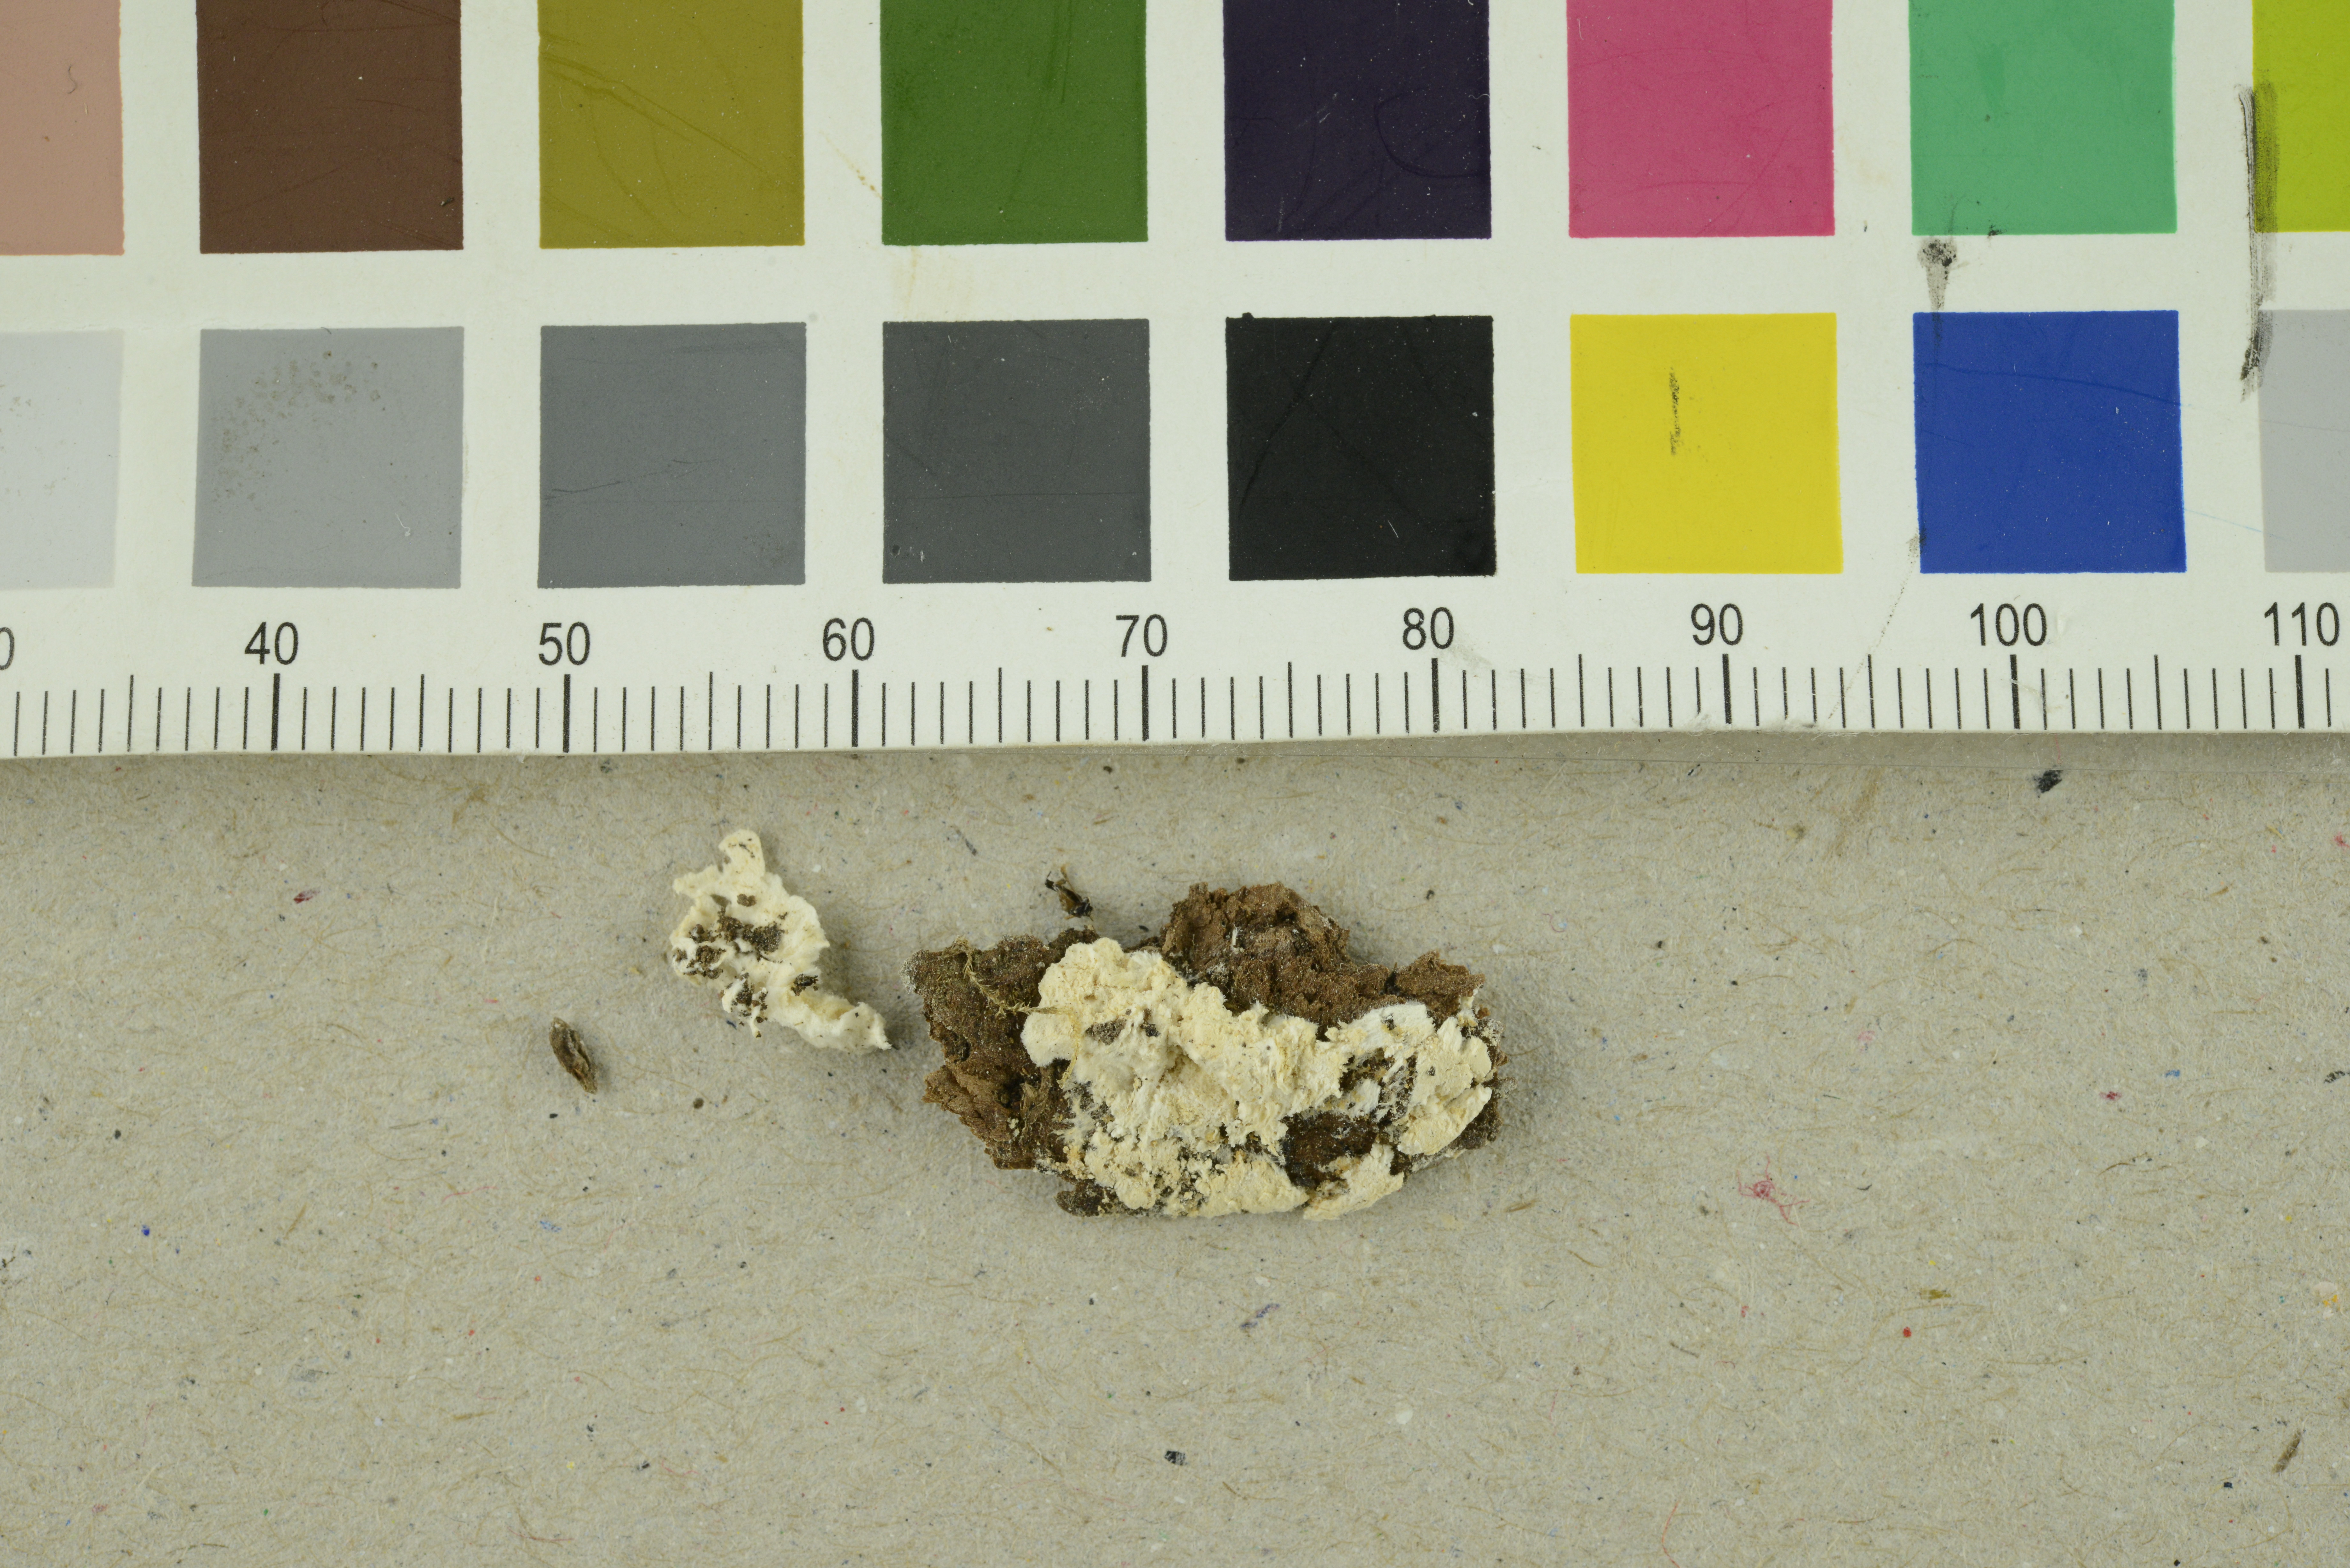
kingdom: Fungi
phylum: Basidiomycota
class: Agaricomycetes
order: Polyporales
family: Fomitopsidaceae
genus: Antrodia
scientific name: Antrodia gossypium
